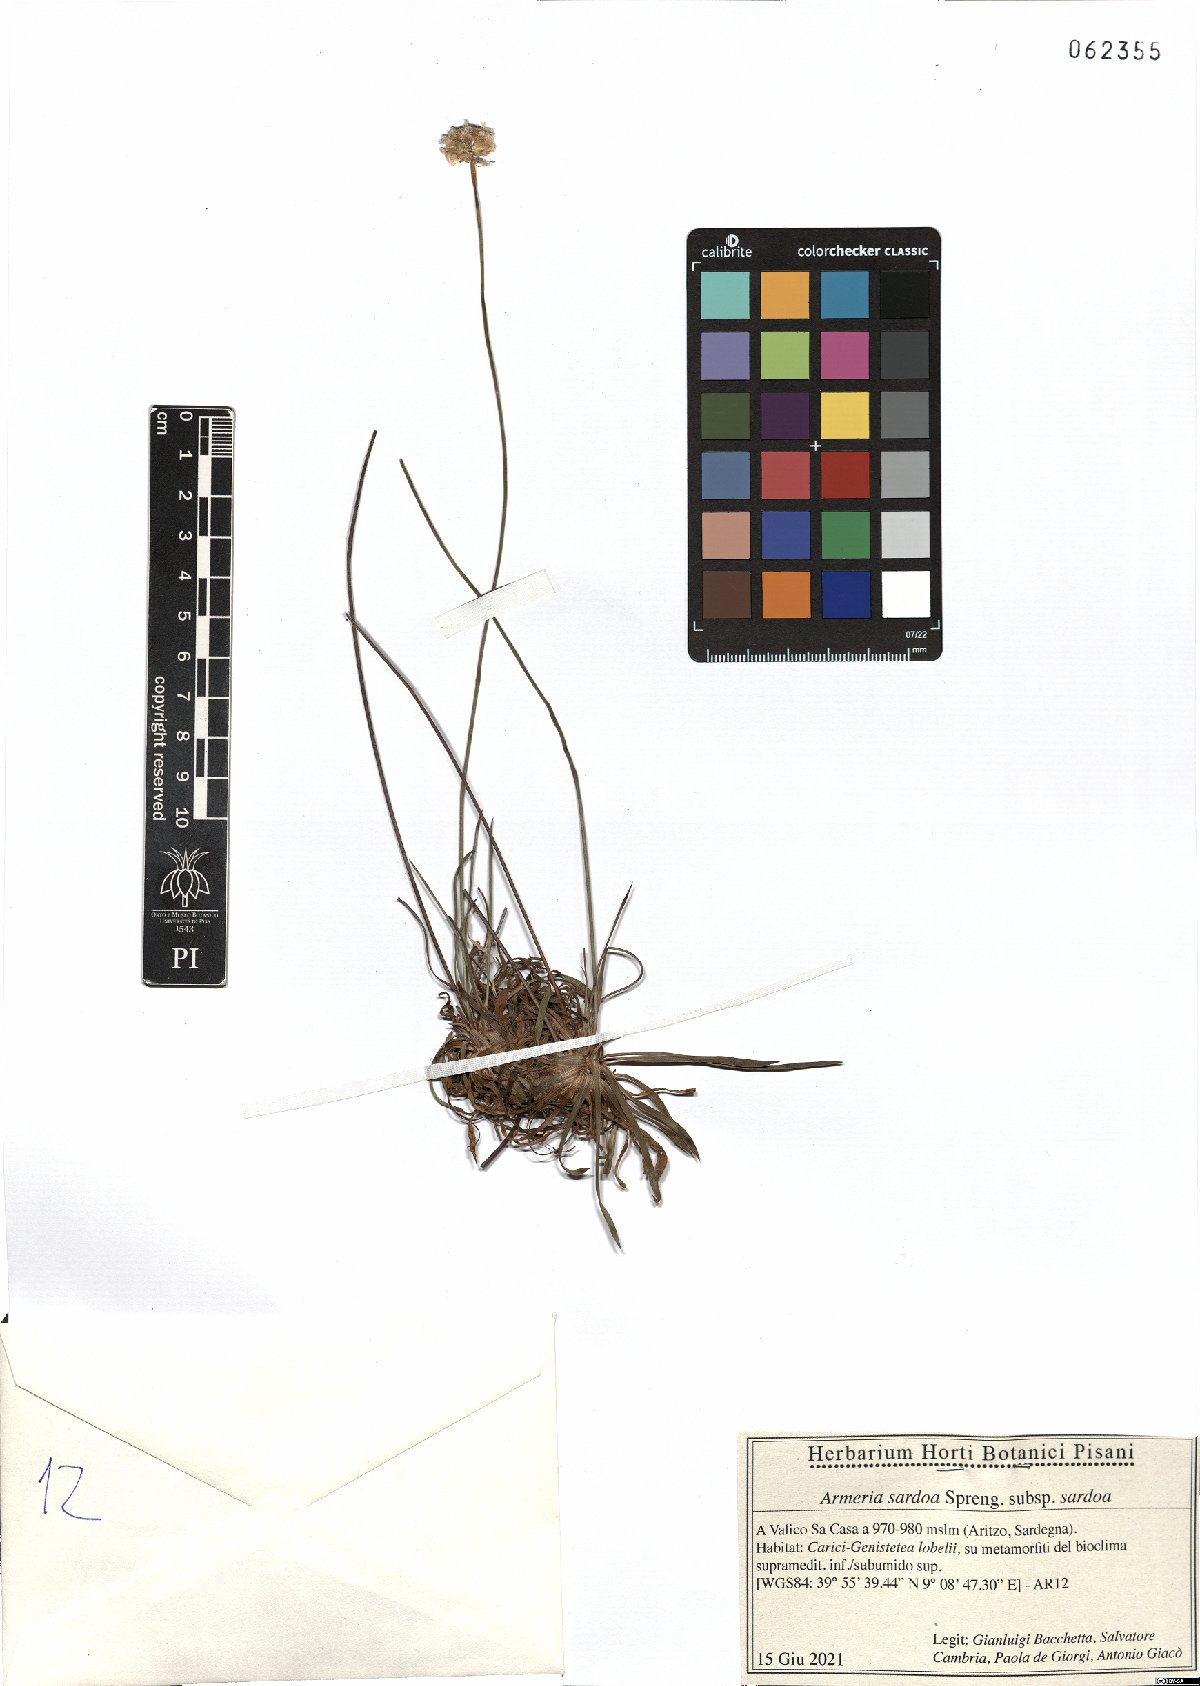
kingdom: Plantae
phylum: Tracheophyta
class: Magnoliopsida
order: Caryophyllales
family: Plumbaginaceae
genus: Armeria
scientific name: Armeria sardoa
